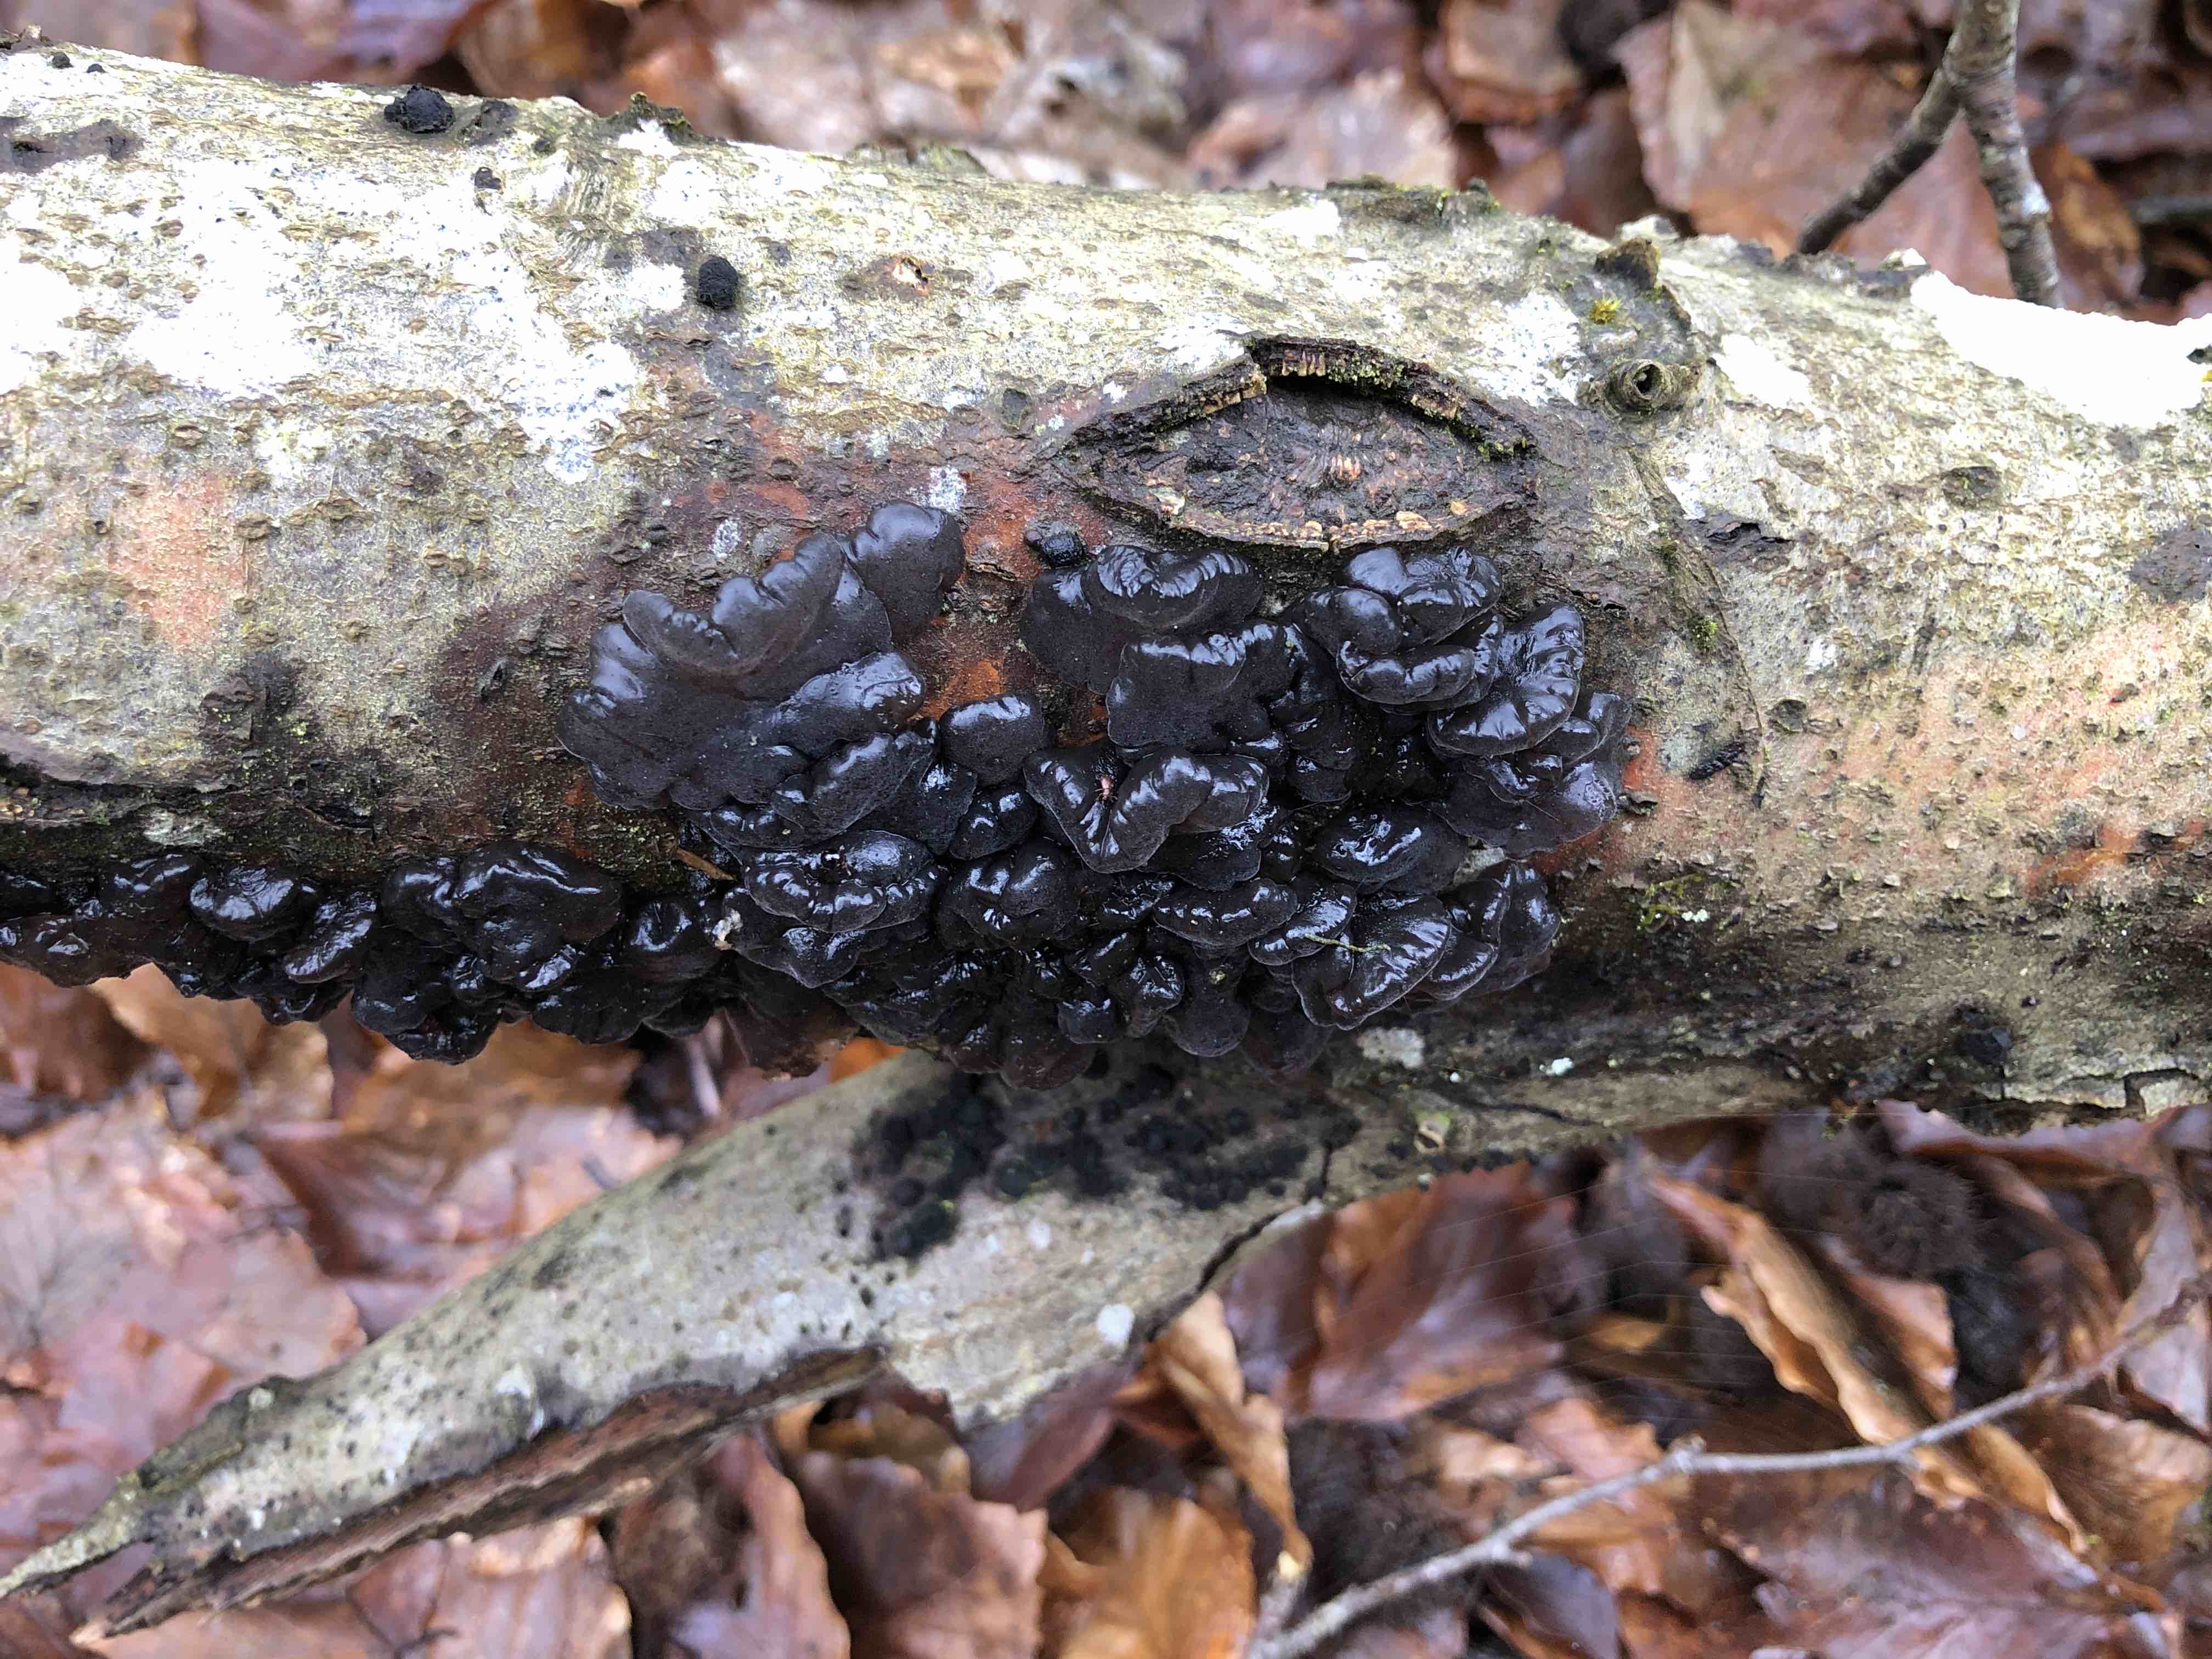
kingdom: Fungi
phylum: Basidiomycota
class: Agaricomycetes
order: Auriculariales
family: Auriculariaceae
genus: Exidia
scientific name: Exidia nigricans
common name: almindelig bævretop
